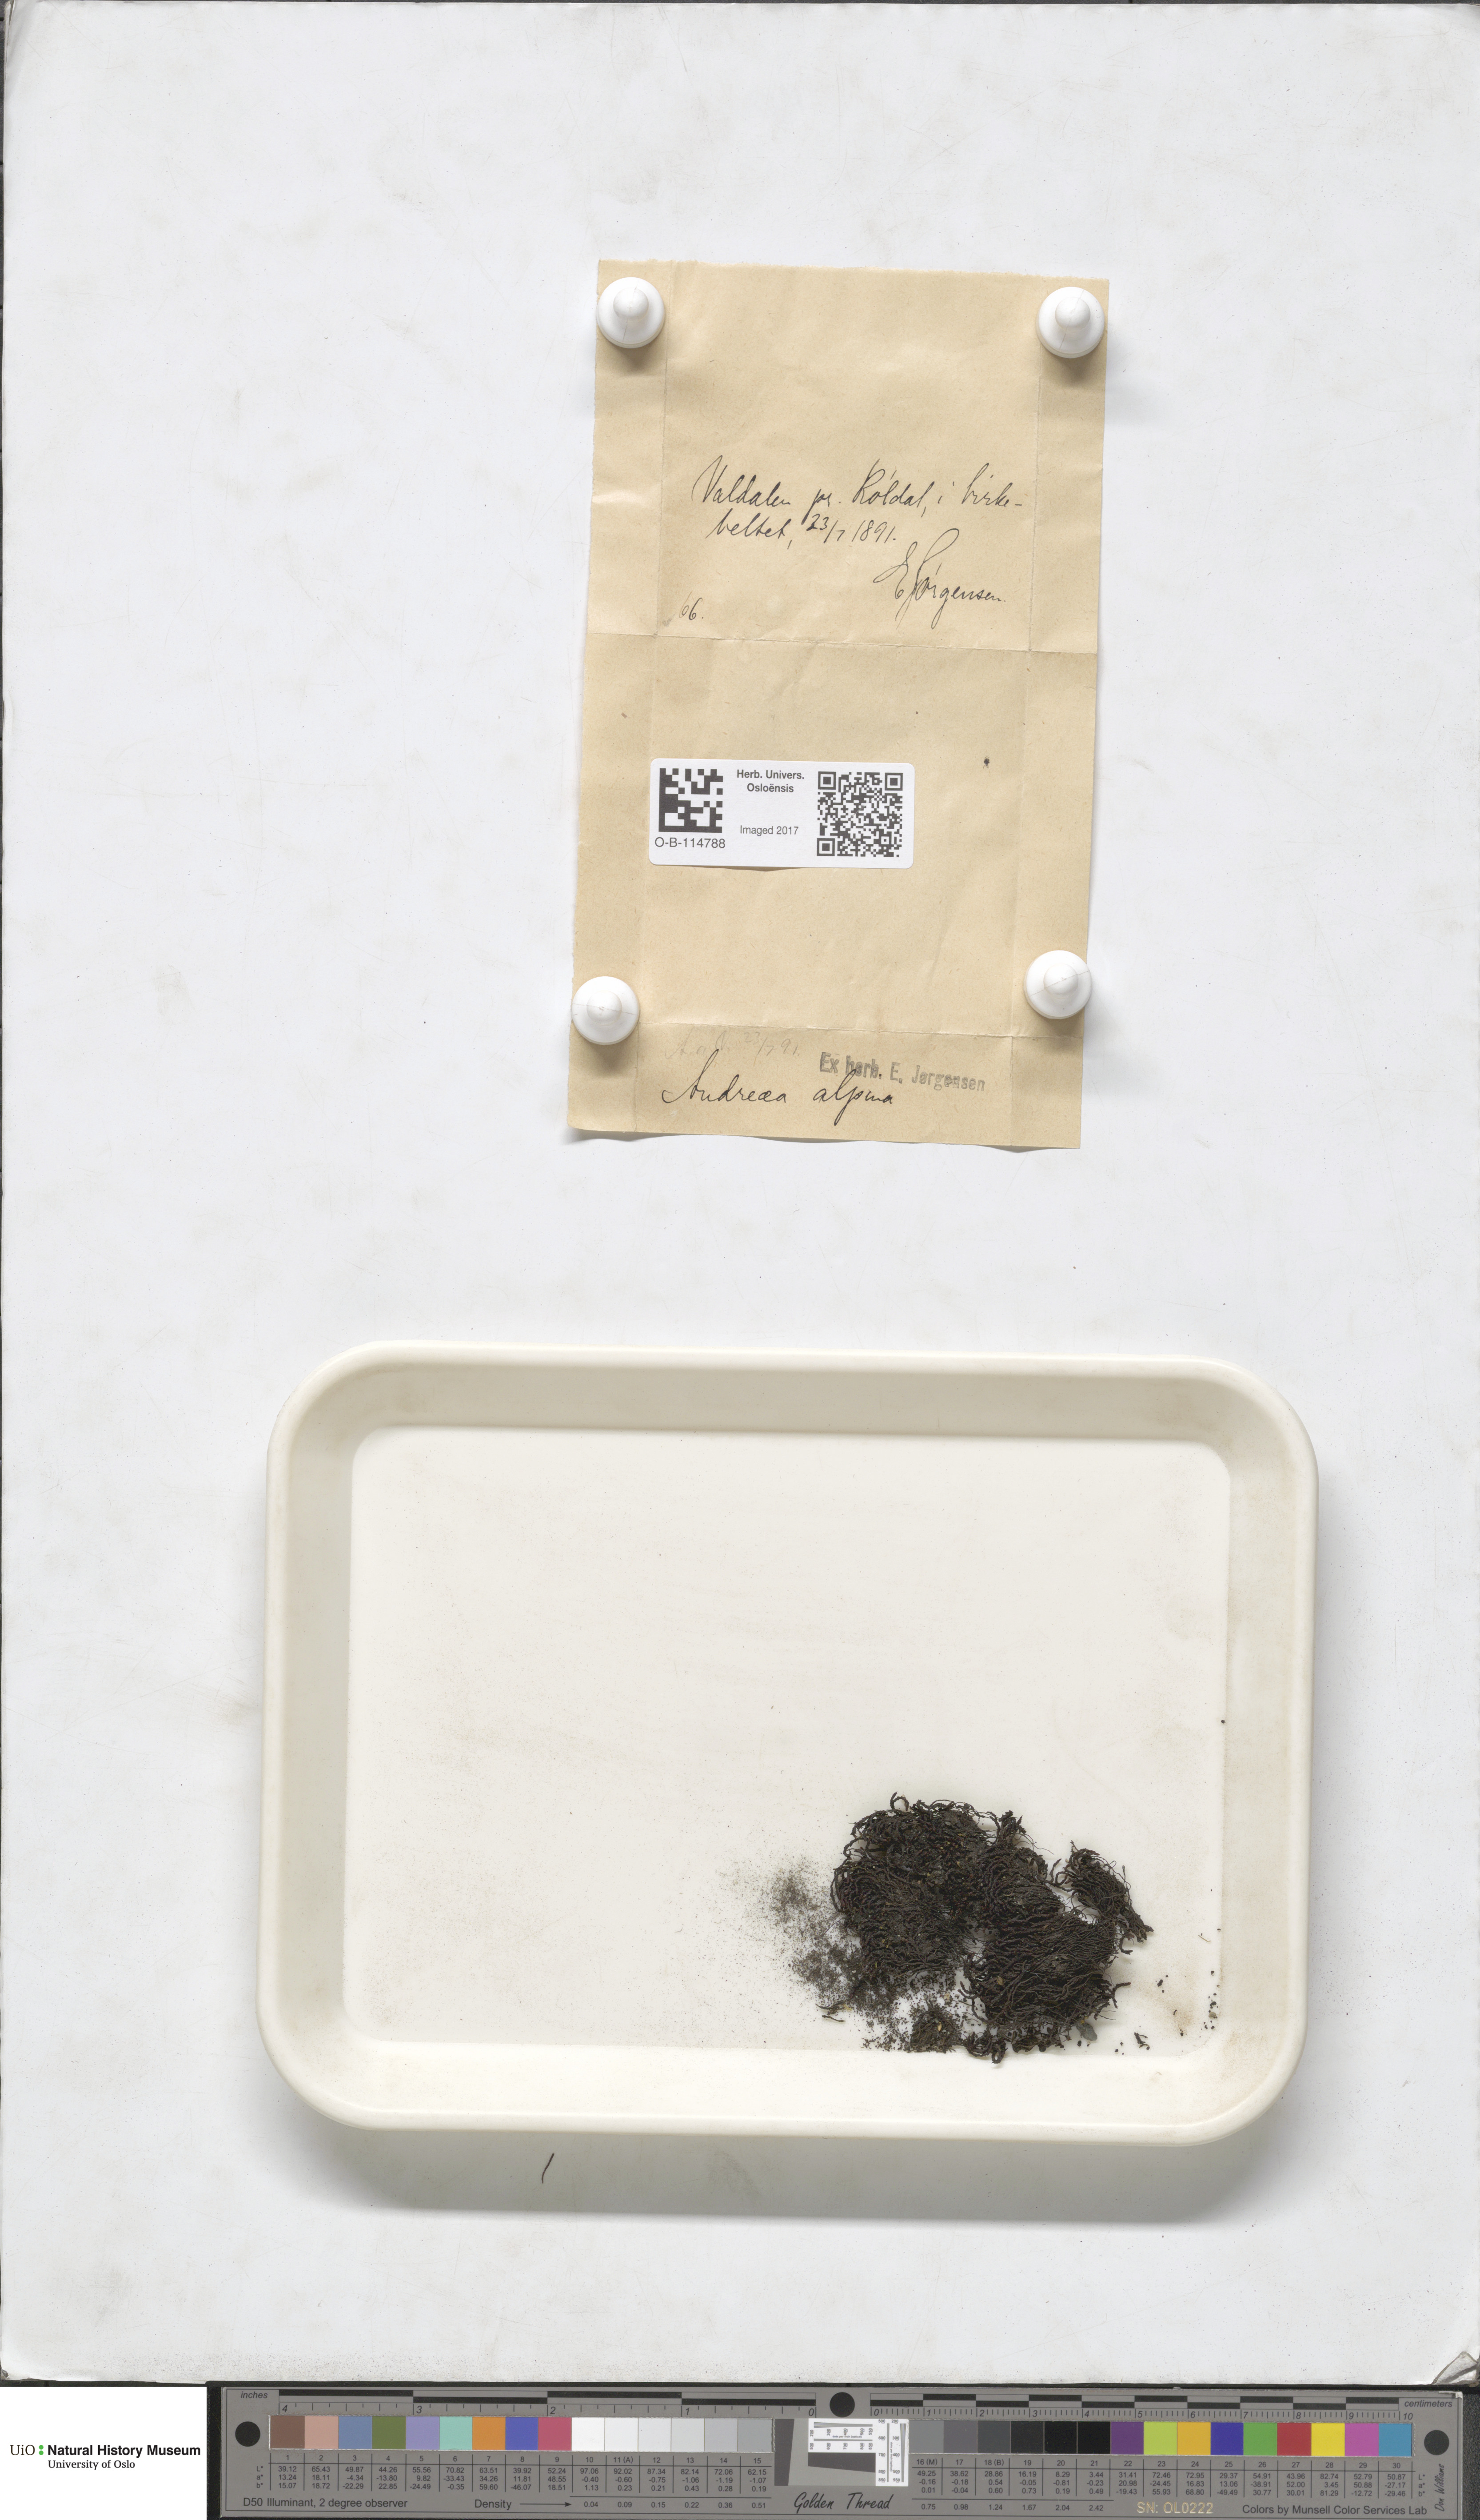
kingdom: Plantae
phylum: Bryophyta
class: Andreaeopsida
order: Andreaeales
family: Andreaeaceae
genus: Andreaea
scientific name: Andreaea hookeri
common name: Alpine rock-moss
